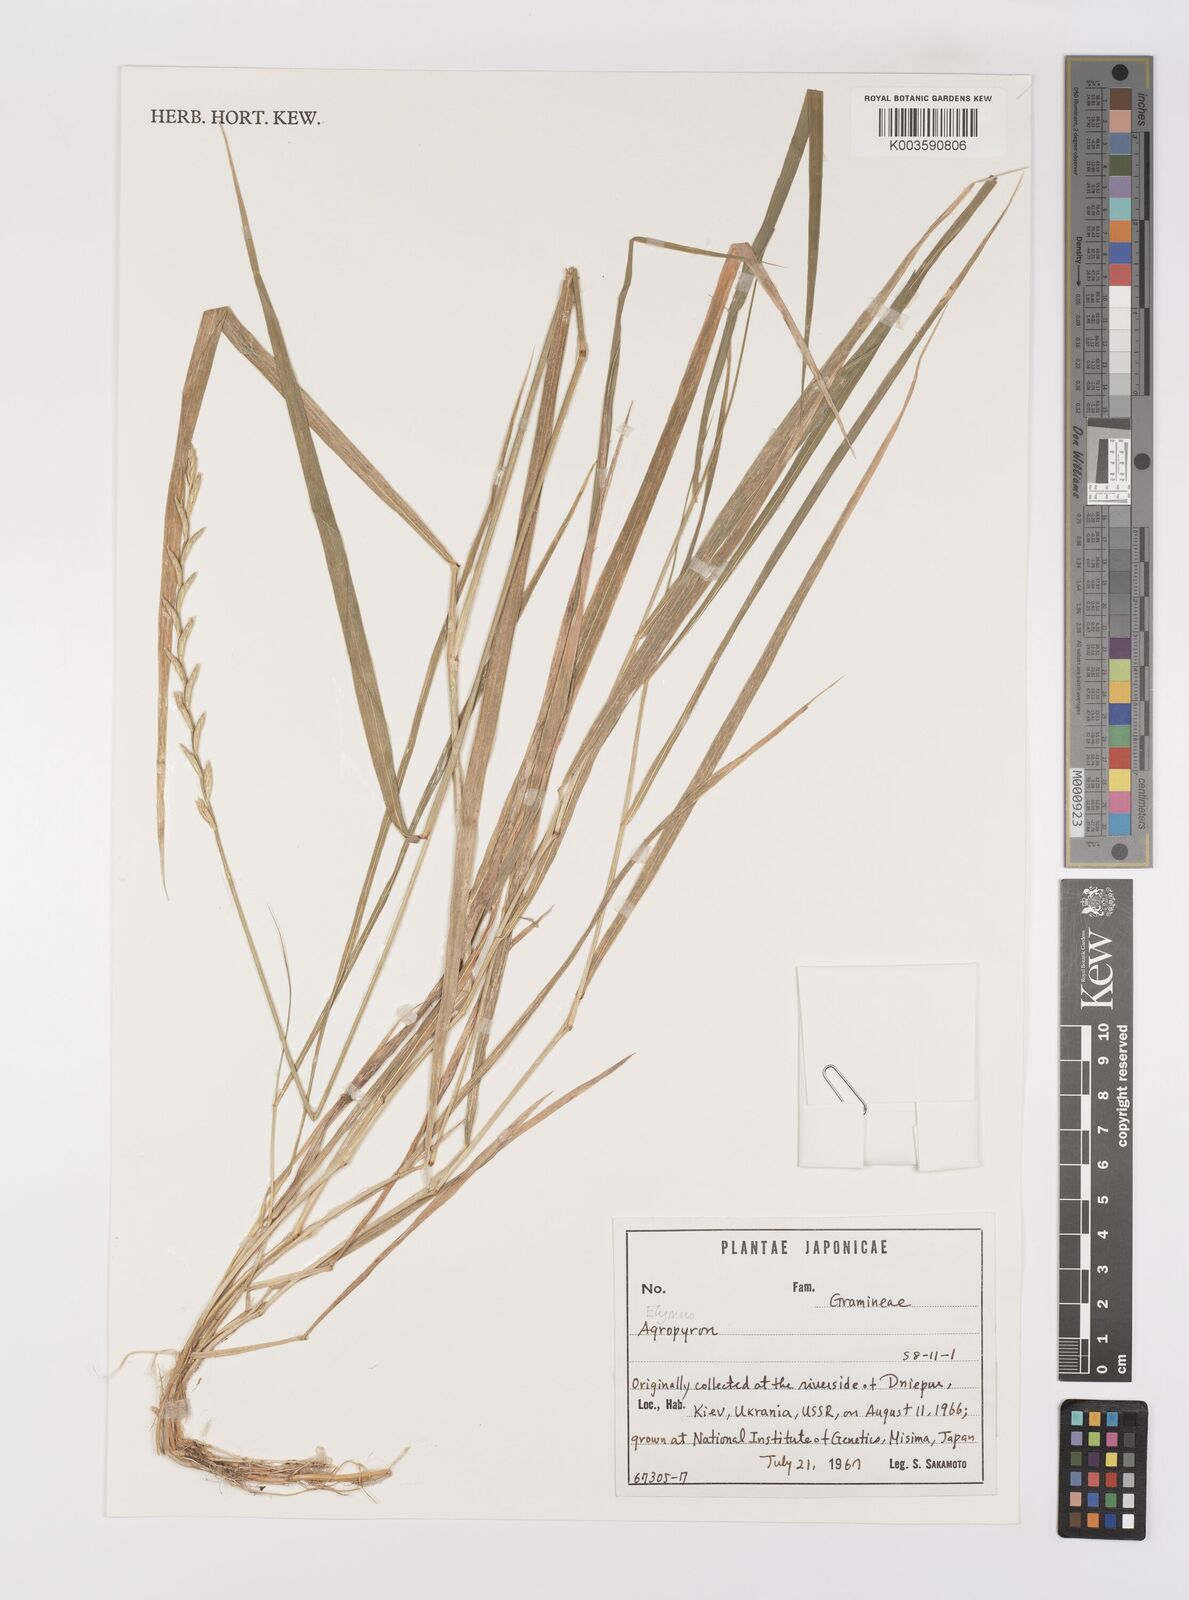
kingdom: Plantae
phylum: Tracheophyta
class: Liliopsida
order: Poales
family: Poaceae
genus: Elymus
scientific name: Elymus
